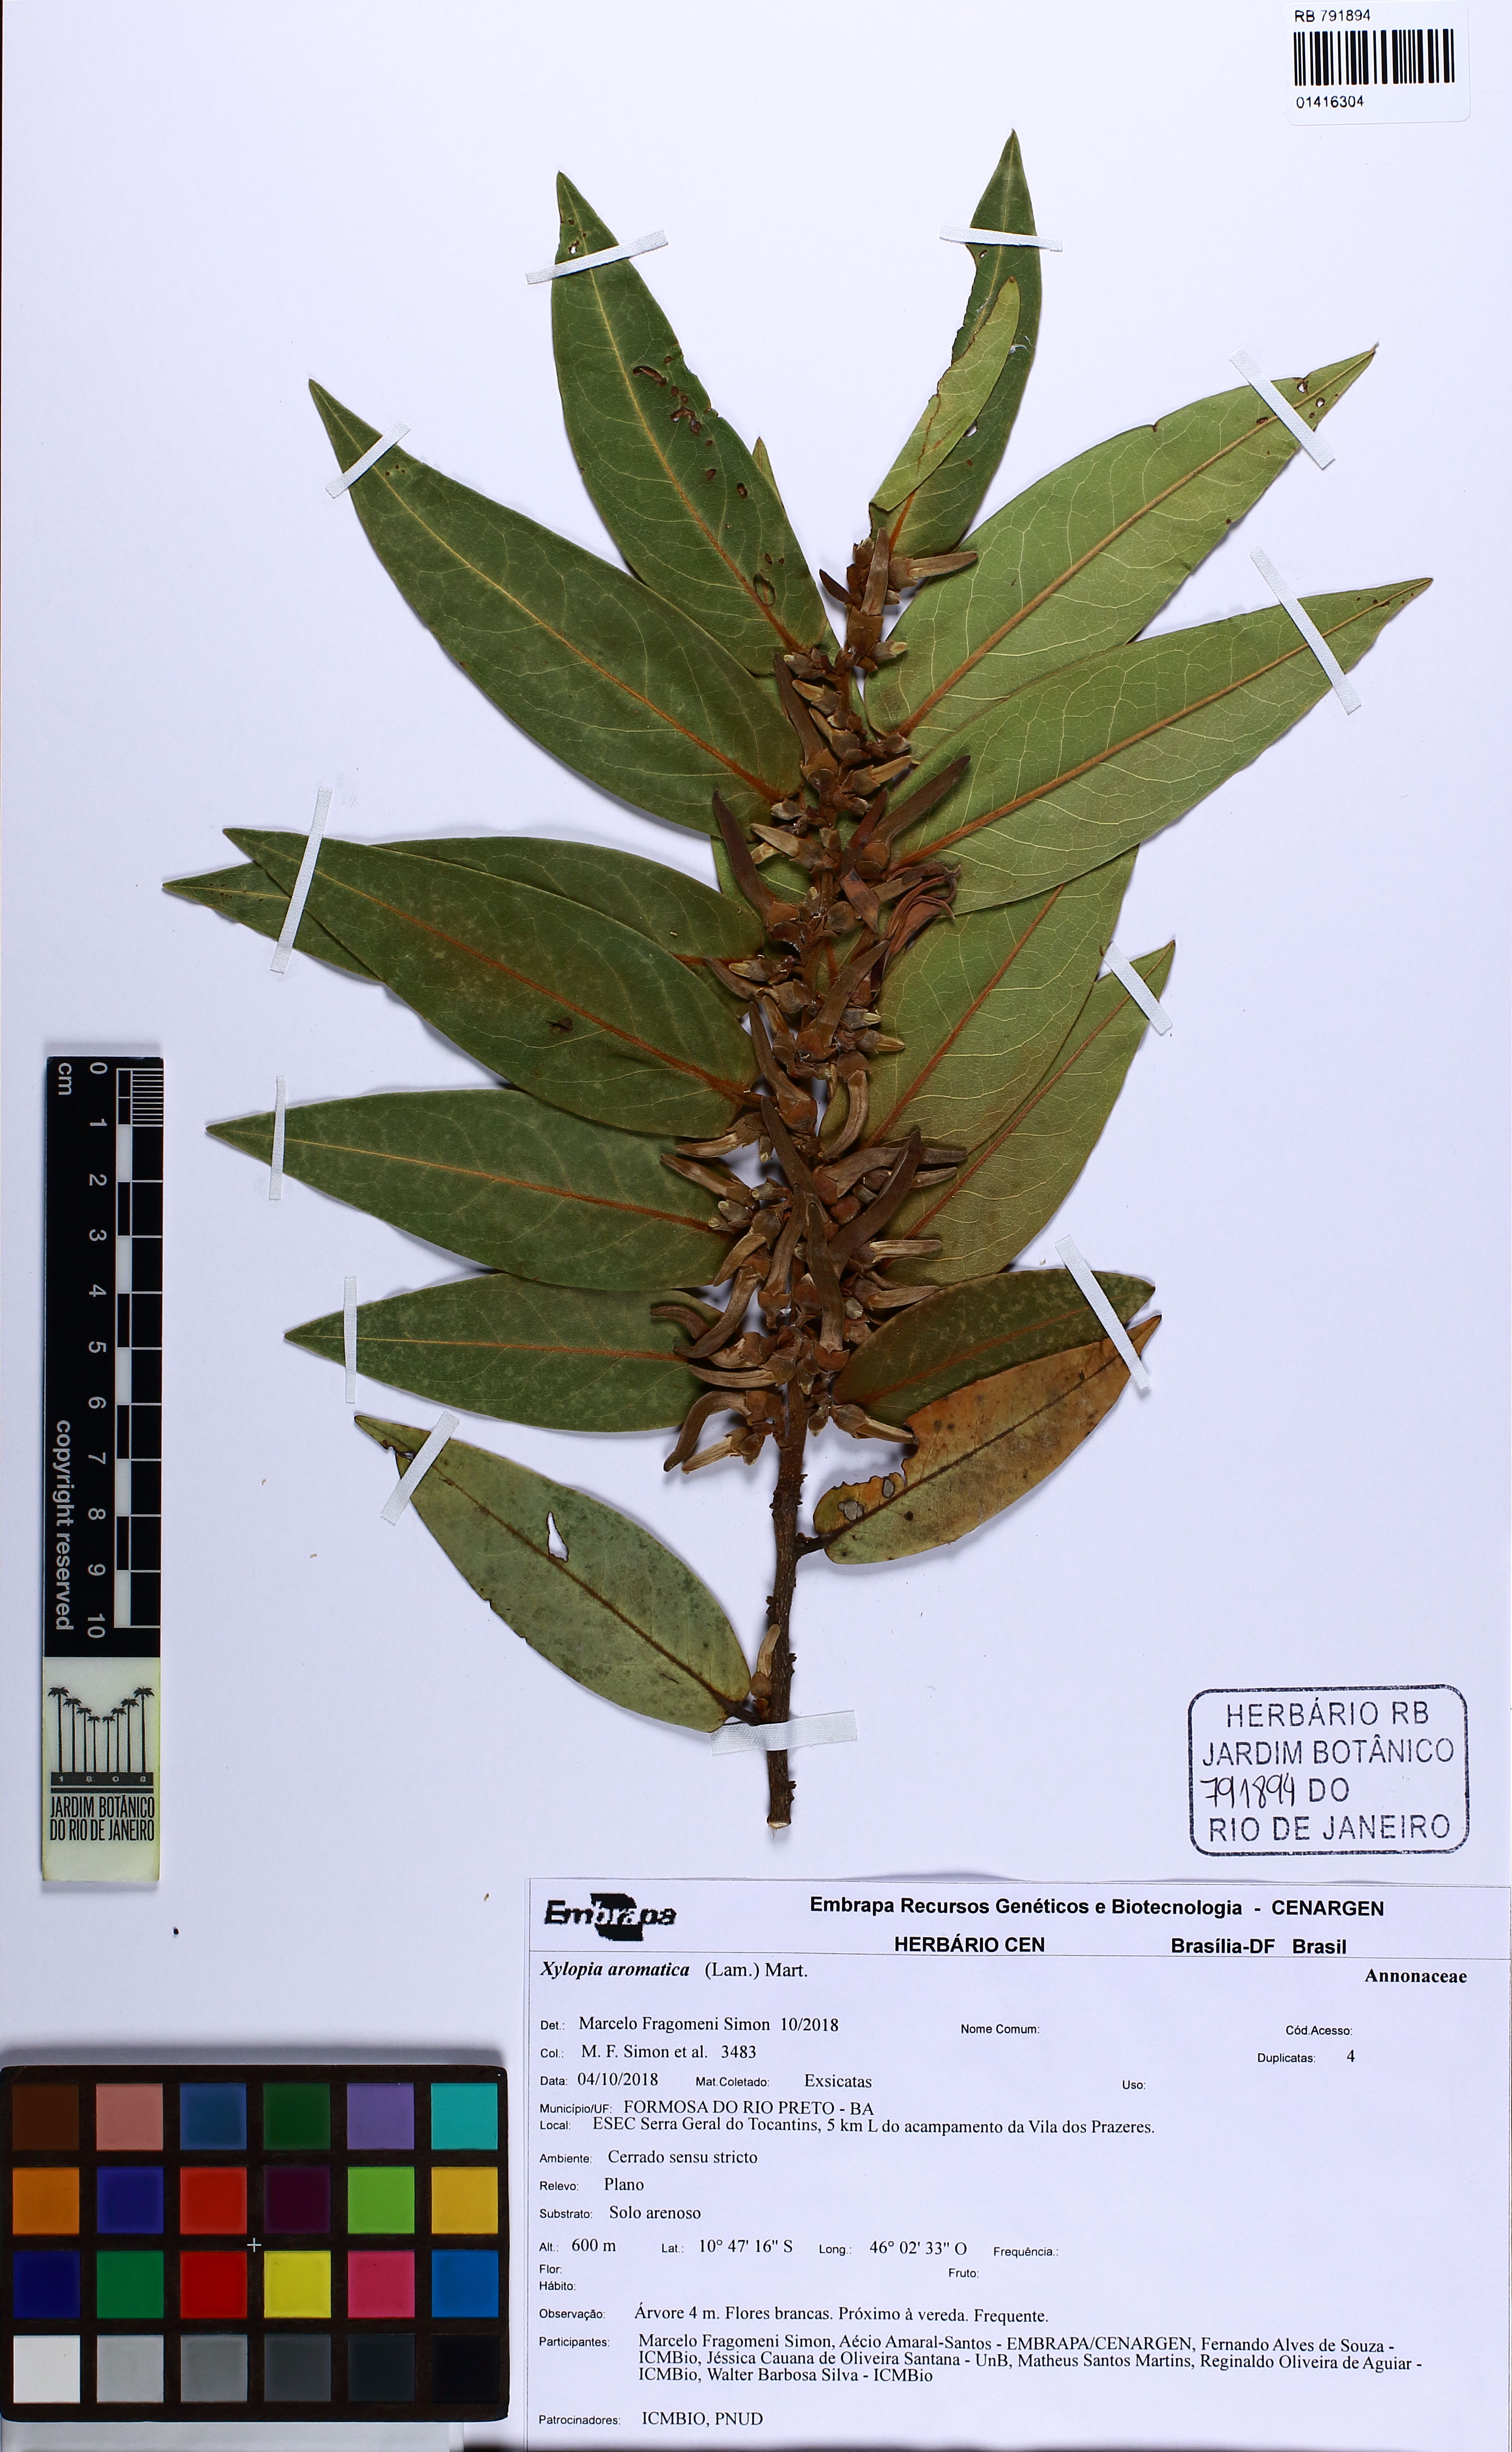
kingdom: Plantae
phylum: Tracheophyta
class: Magnoliopsida
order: Magnoliales
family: Annonaceae
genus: Xylopia
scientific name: Xylopia aromatica
